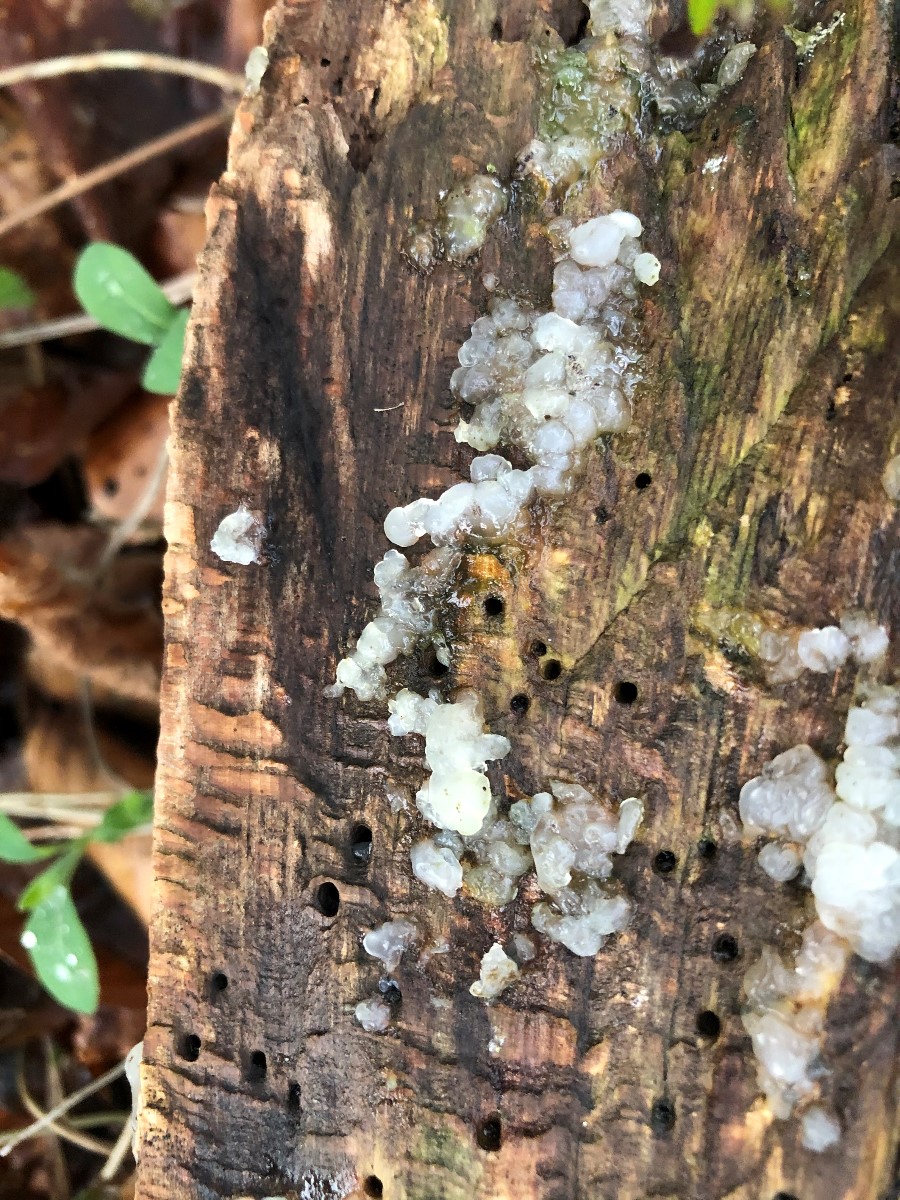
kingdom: Fungi
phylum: Basidiomycota
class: Agaricomycetes
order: Auriculariales
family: Hyaloriaceae
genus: Myxarium
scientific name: Myxarium nucleatum
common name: klar bævretop
